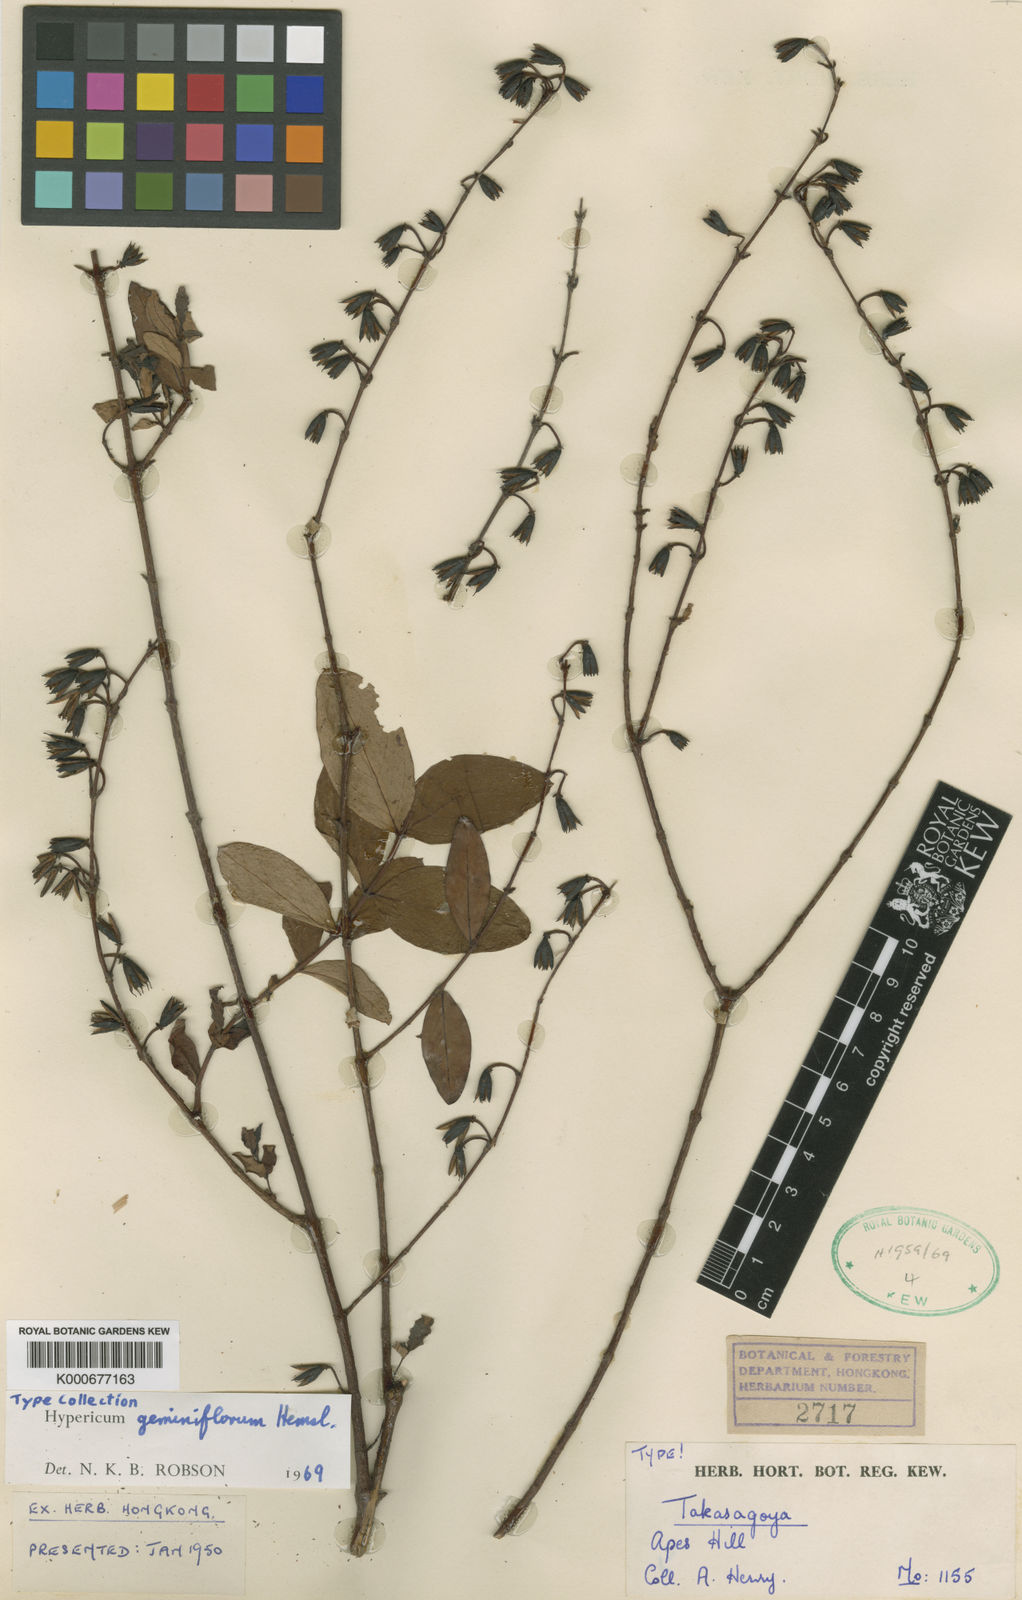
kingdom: Plantae
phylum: Tracheophyta
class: Magnoliopsida
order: Malpighiales
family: Hypericaceae
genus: Hypericum
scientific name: Hypericum geminiflorum
